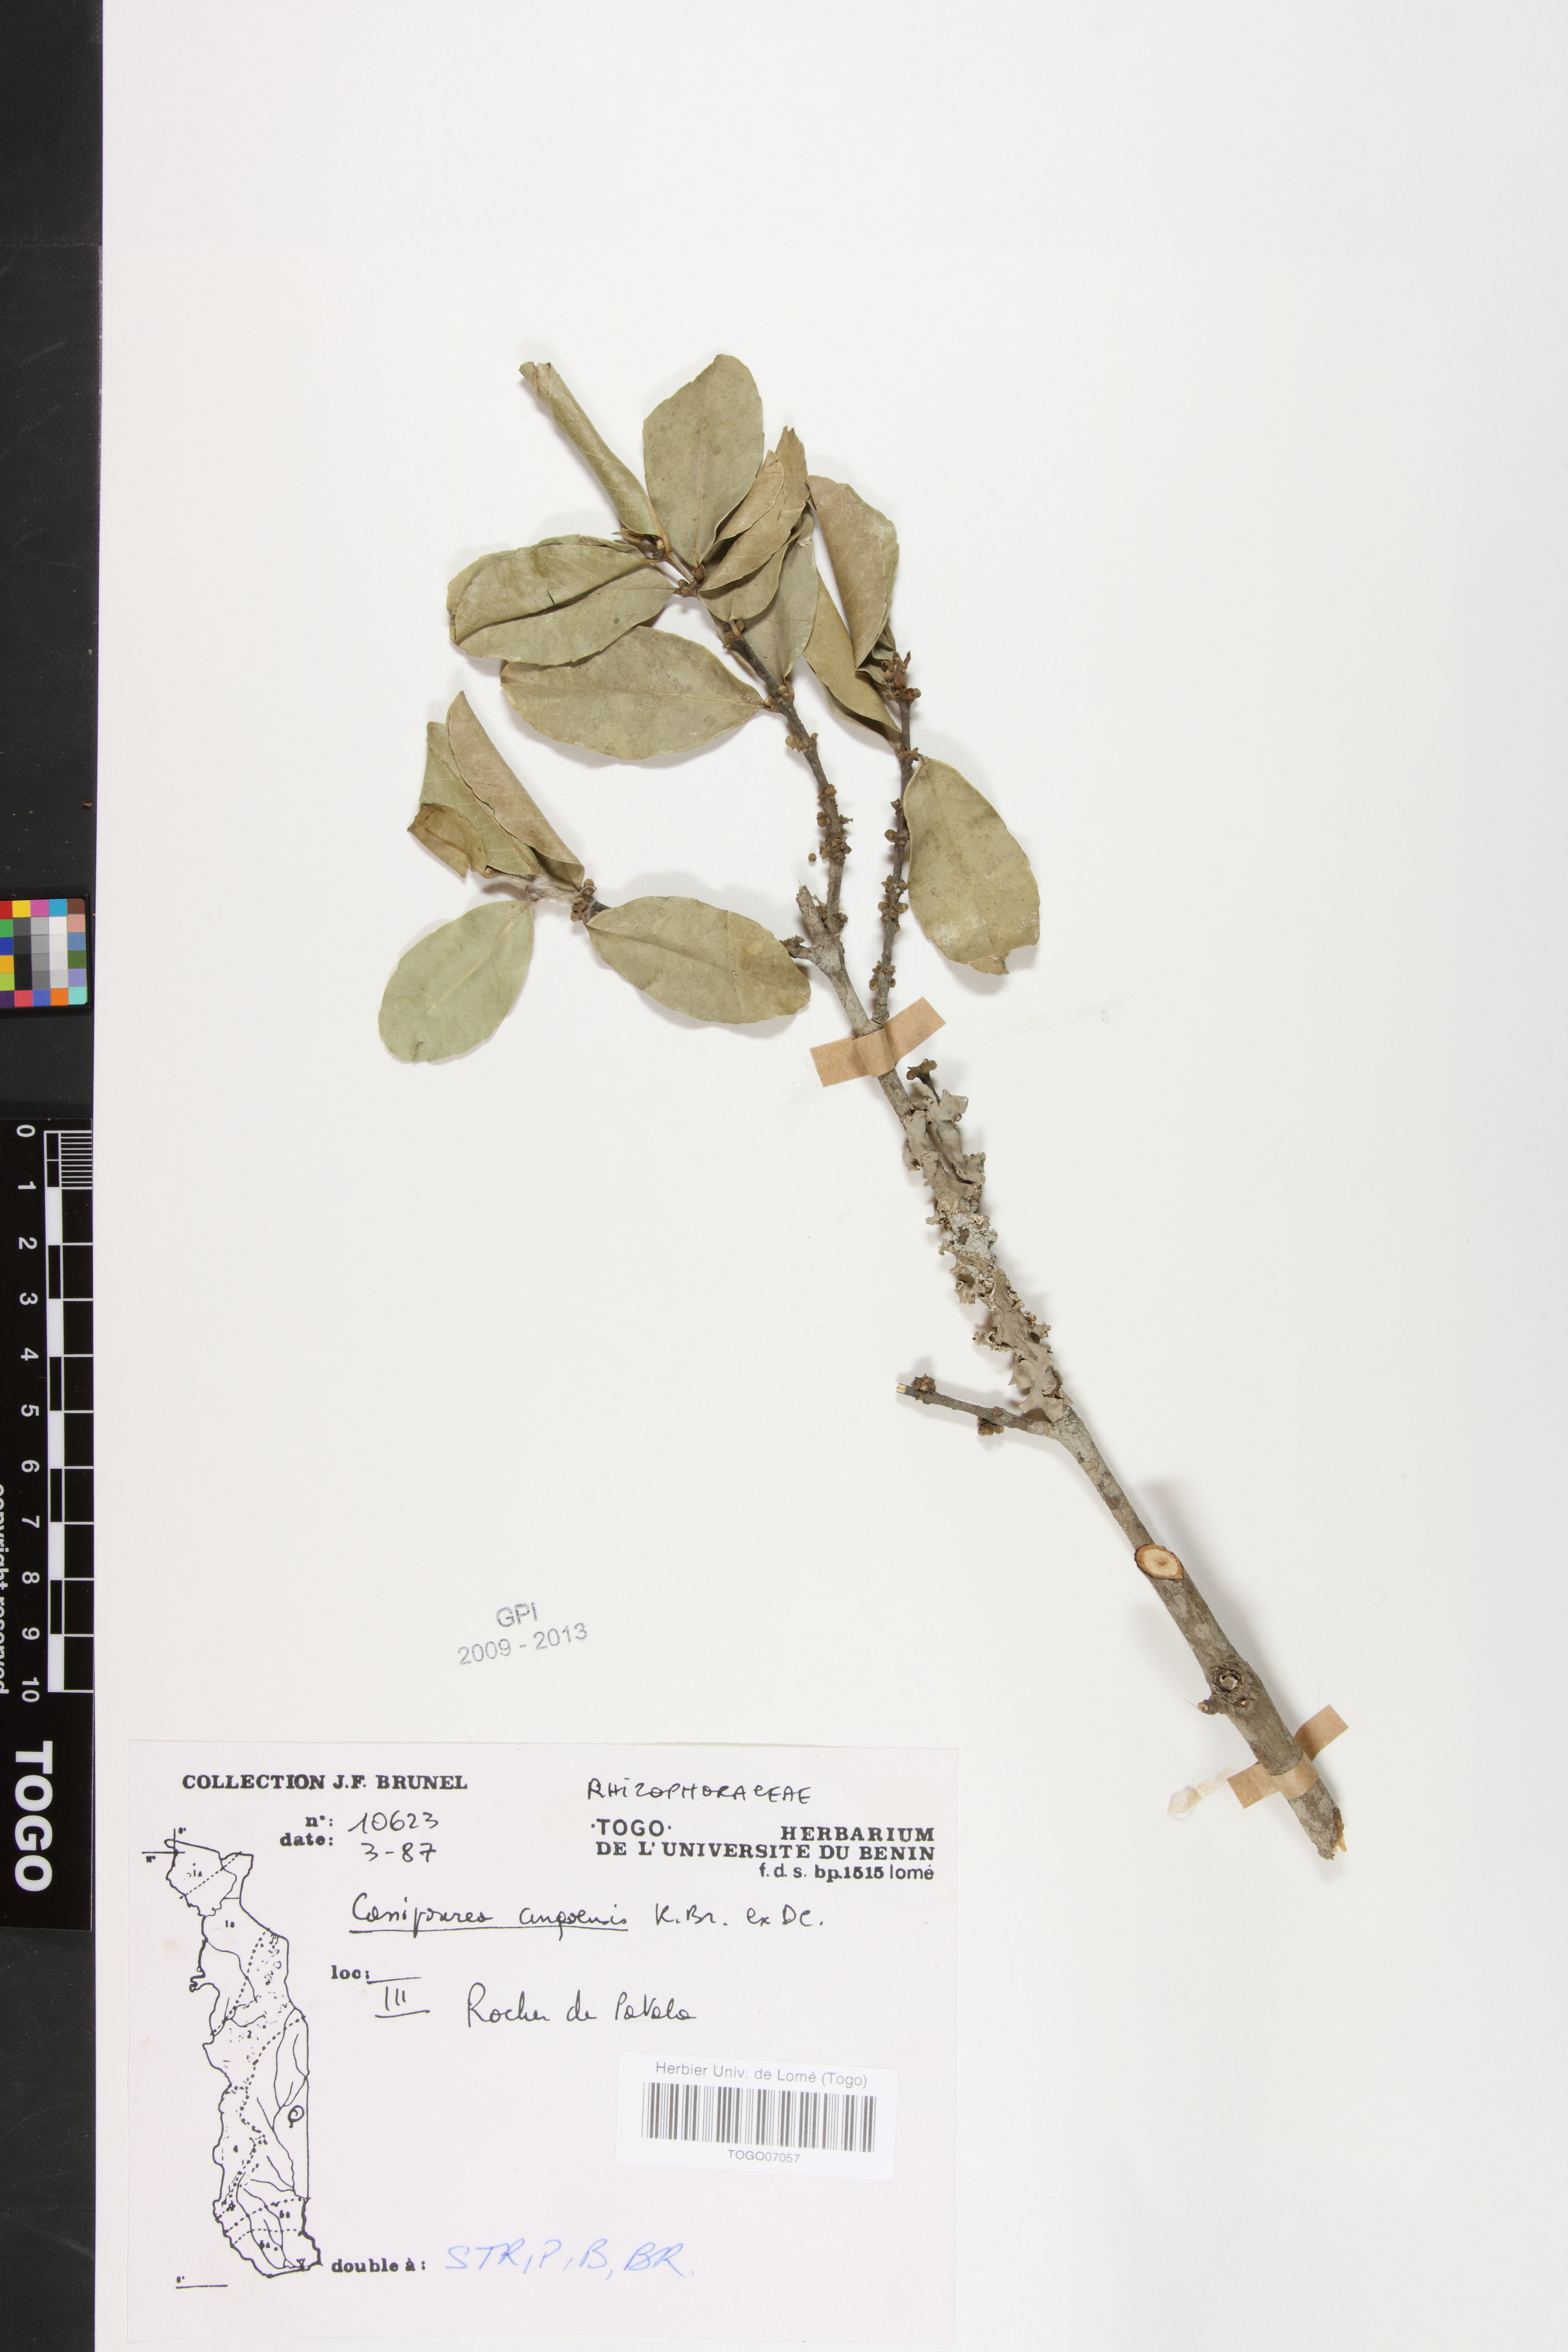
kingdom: Plantae
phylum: Tracheophyta
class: Magnoliopsida
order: Malpighiales
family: Rhizophoraceae
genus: Cassipourea
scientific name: Cassipourea congoensis
